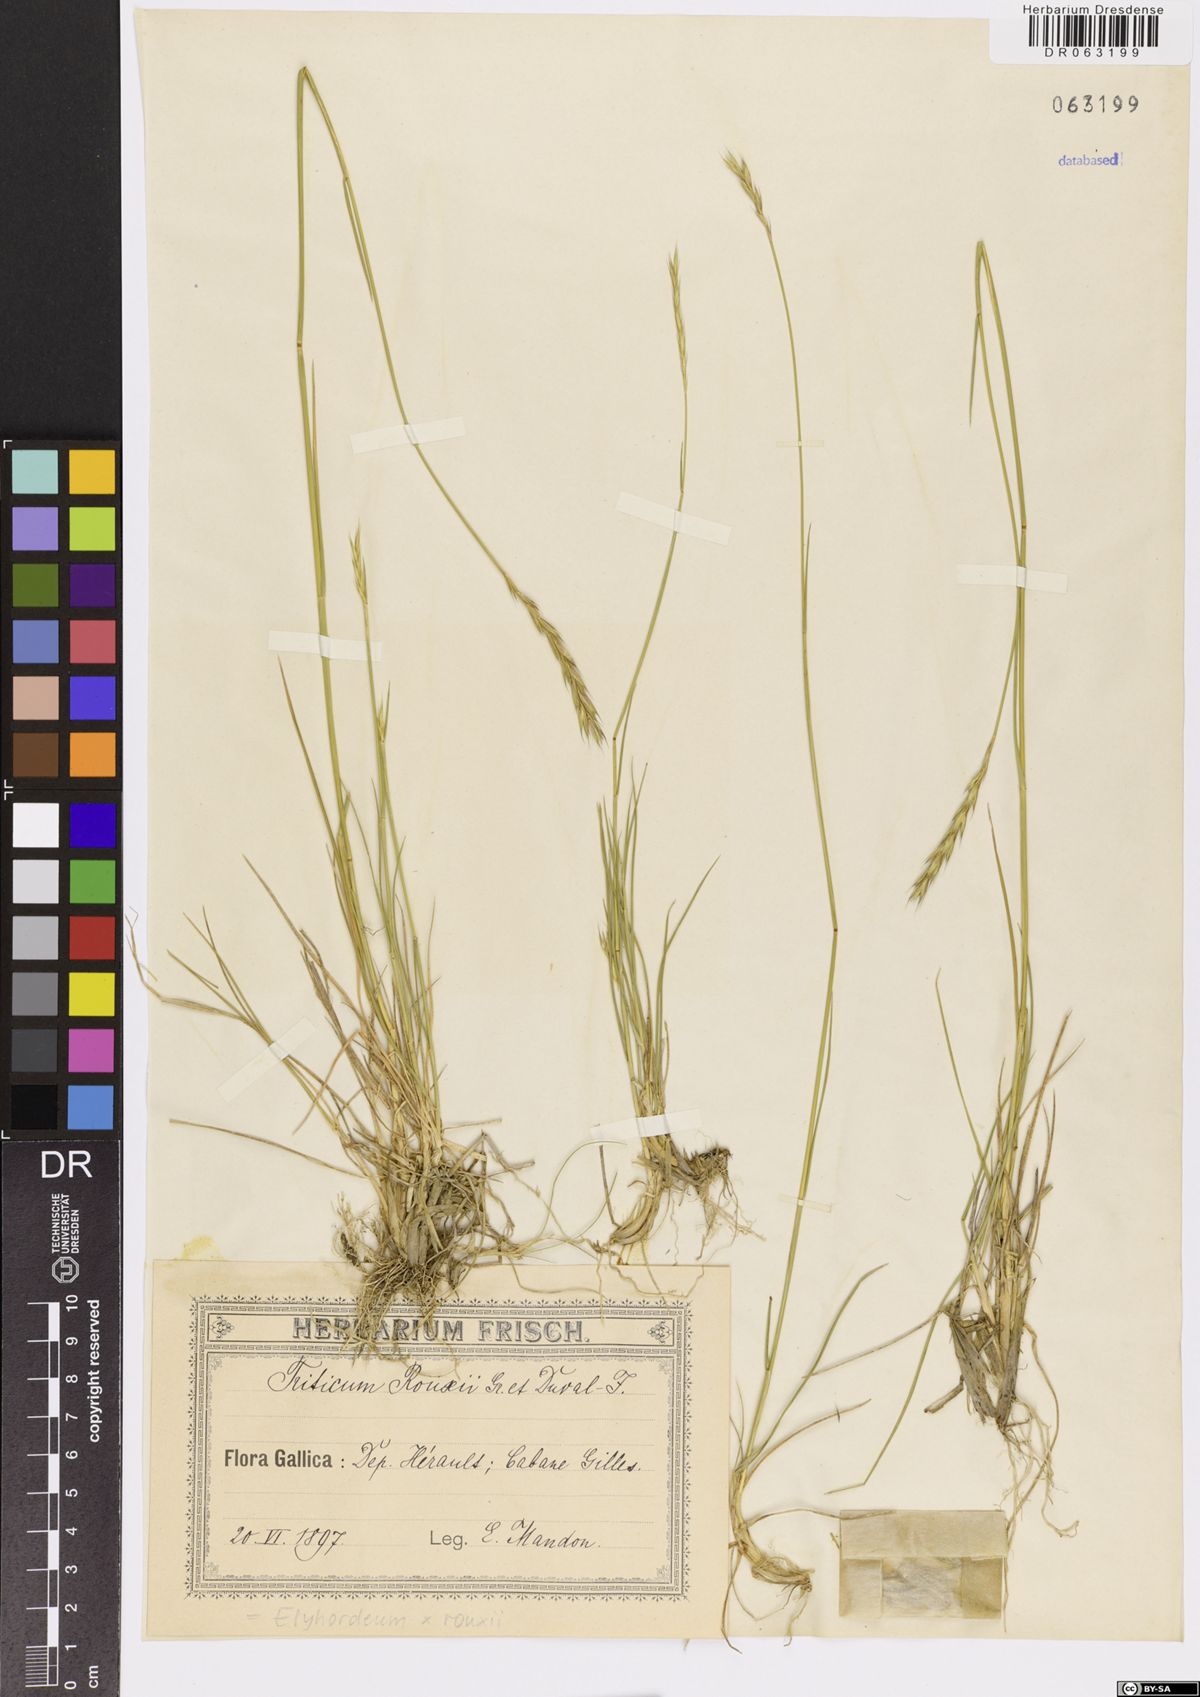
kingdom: Plantae
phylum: Tracheophyta
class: Liliopsida
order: Poales
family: Poaceae
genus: Elyhordeum
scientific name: Elyhordeum rouxii
